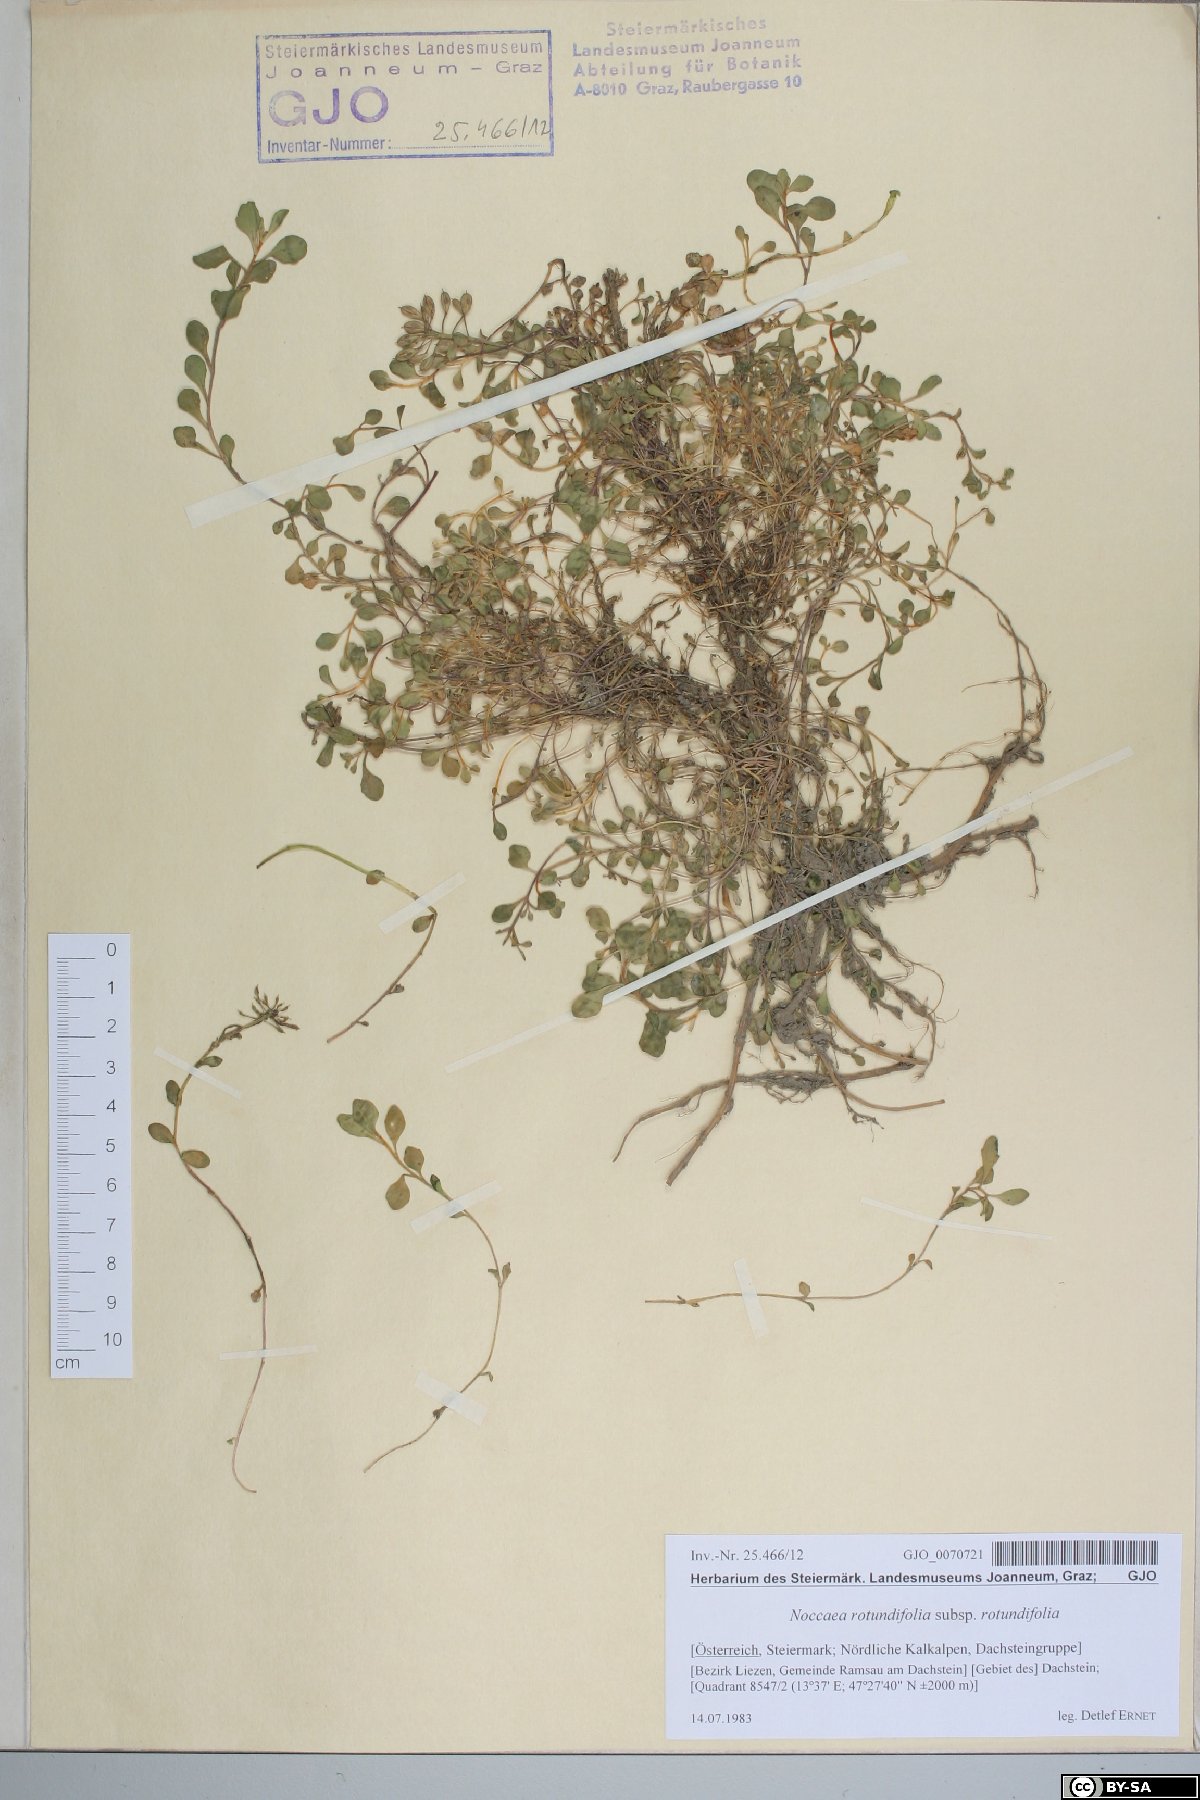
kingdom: Plantae
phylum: Tracheophyta
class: Magnoliopsida
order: Brassicales
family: Brassicaceae
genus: Noccaea
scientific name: Noccaea rotundifolia
